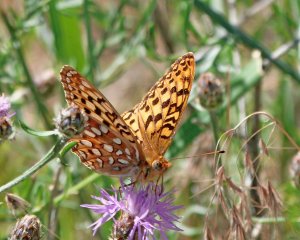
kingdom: Animalia
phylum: Arthropoda
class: Insecta
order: Lepidoptera
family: Nymphalidae
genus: Speyeria
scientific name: Speyeria callippe
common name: Callippe Fritillary
